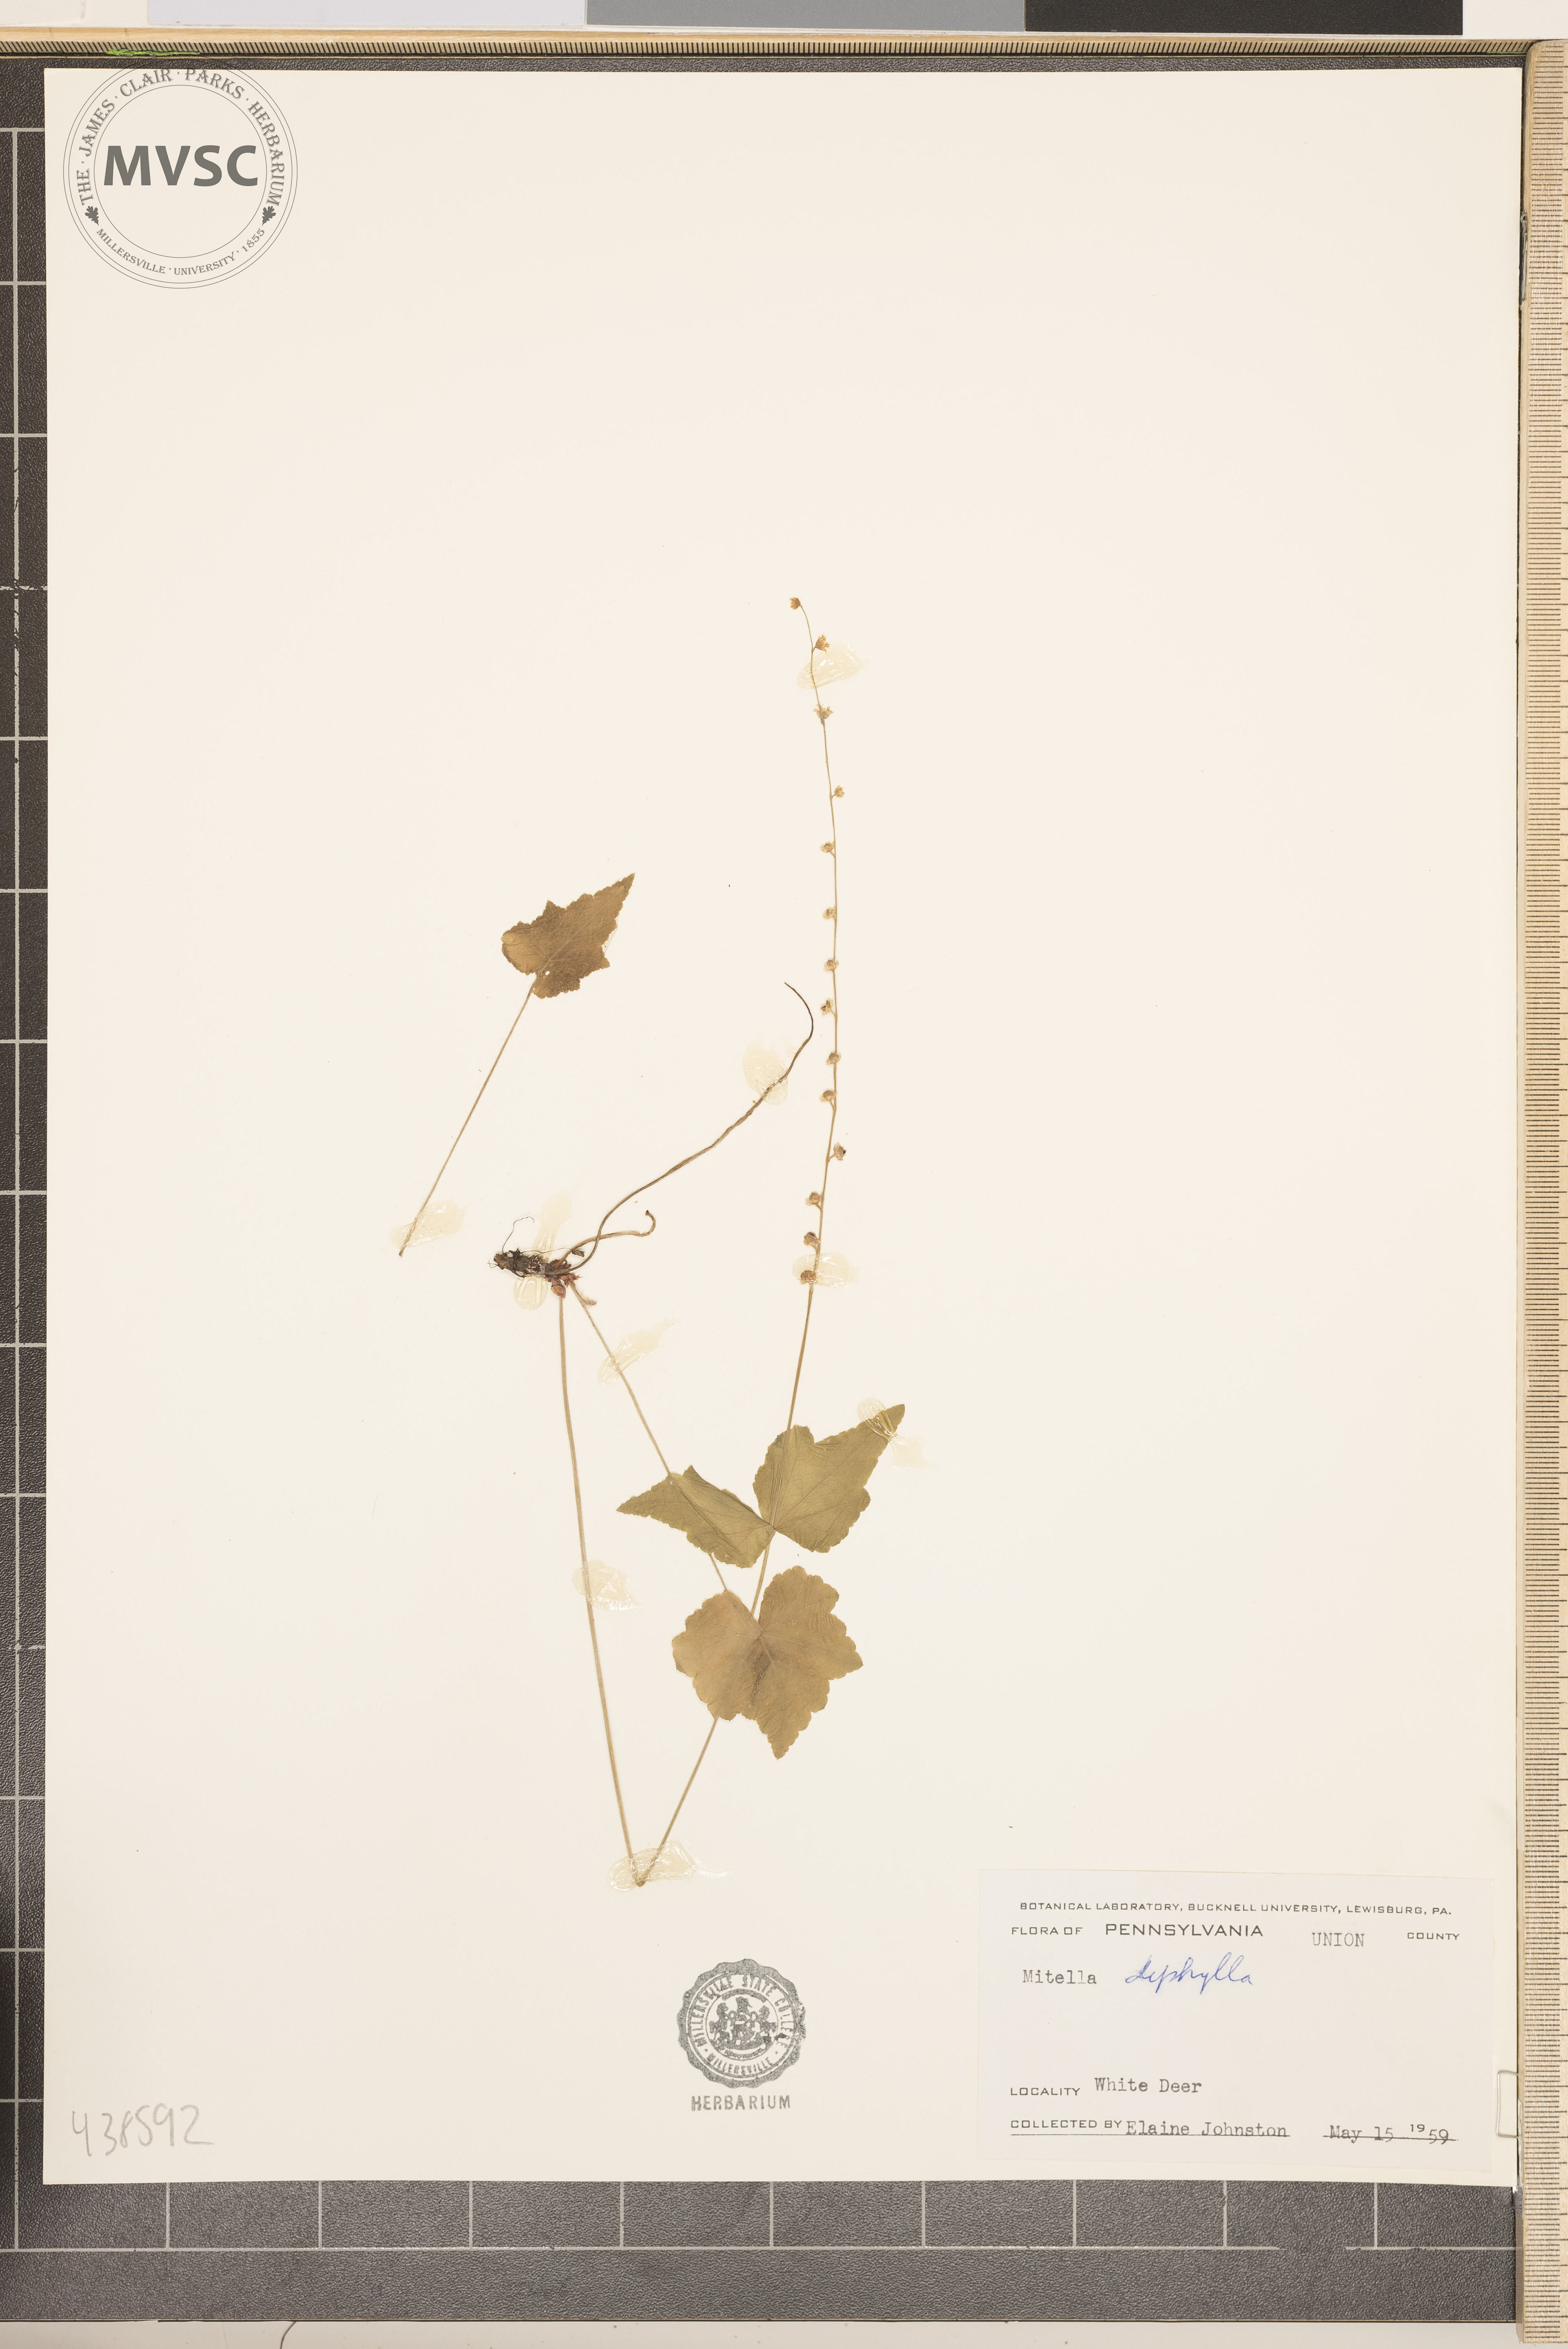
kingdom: Plantae
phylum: Tracheophyta
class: Magnoliopsida
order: Saxifragales
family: Saxifragaceae
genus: Mitella
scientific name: Mitella diphylla
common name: Coolwort
